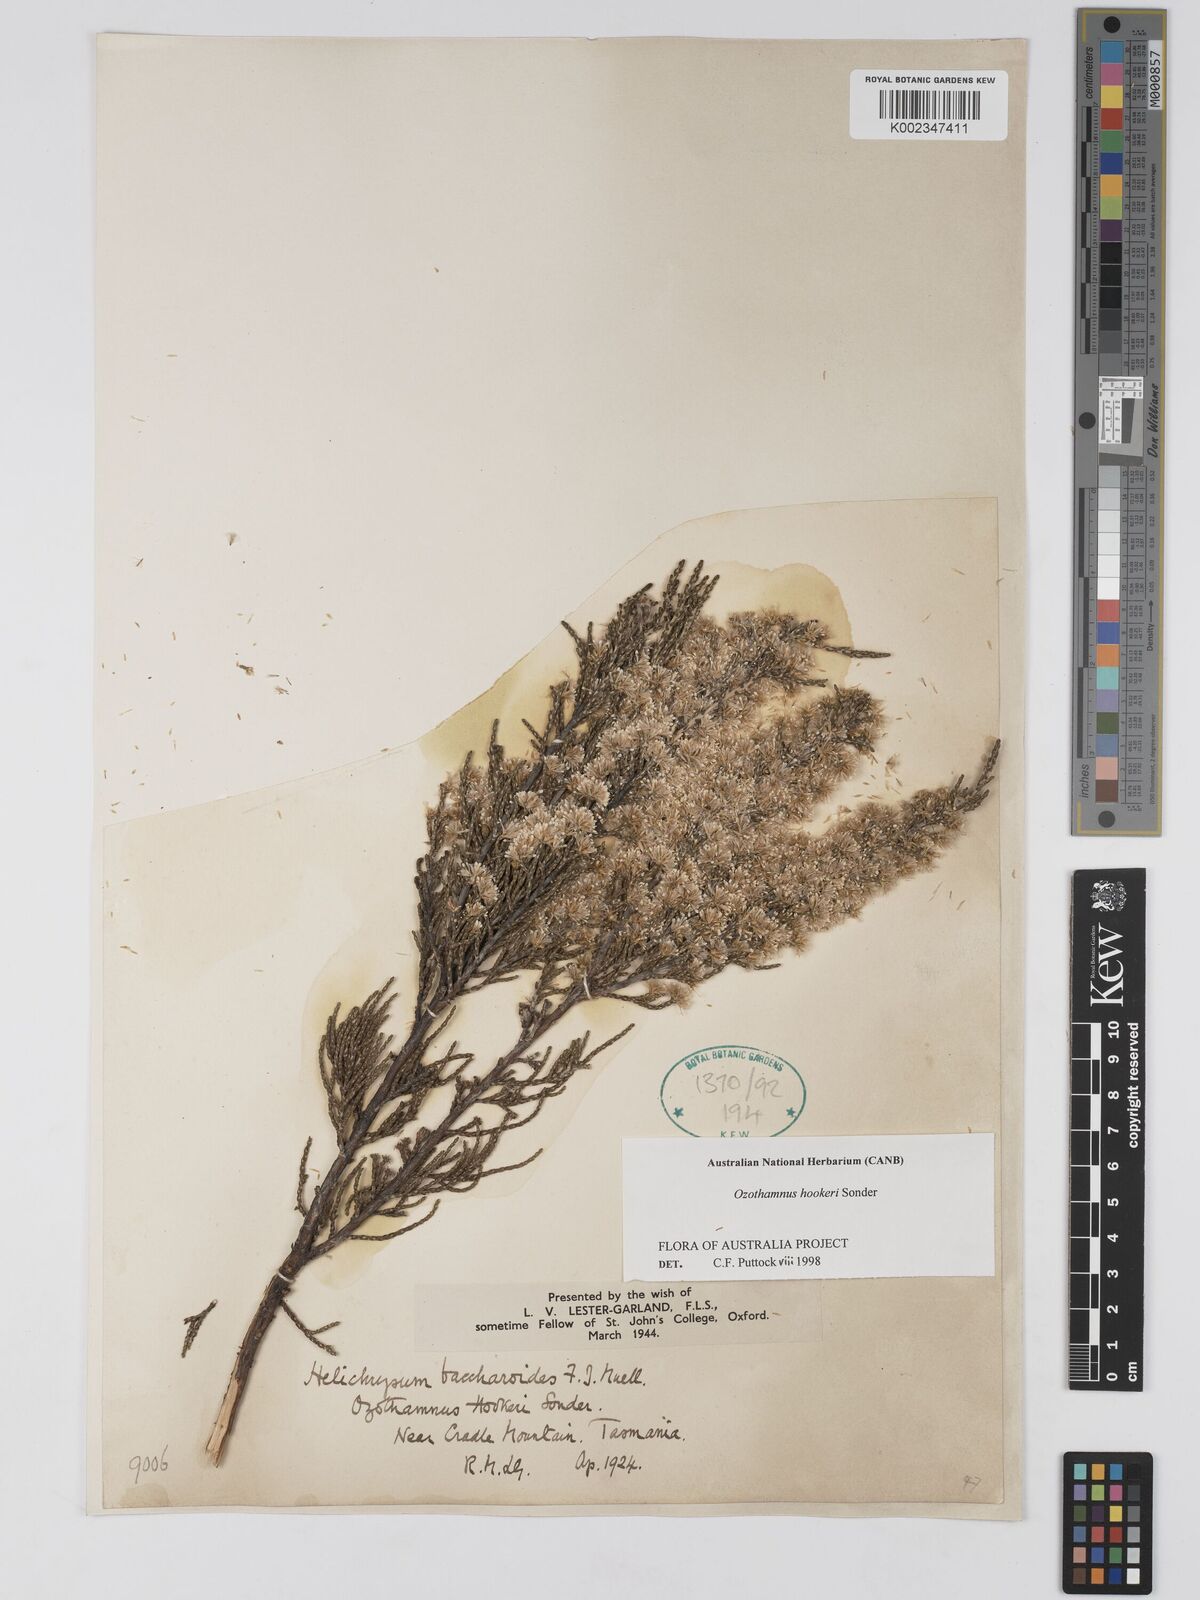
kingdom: Plantae
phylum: Tracheophyta
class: Magnoliopsida
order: Asterales
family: Asteraceae
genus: Ozothamnus
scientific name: Ozothamnus hookeri
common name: Kerosene-bush
